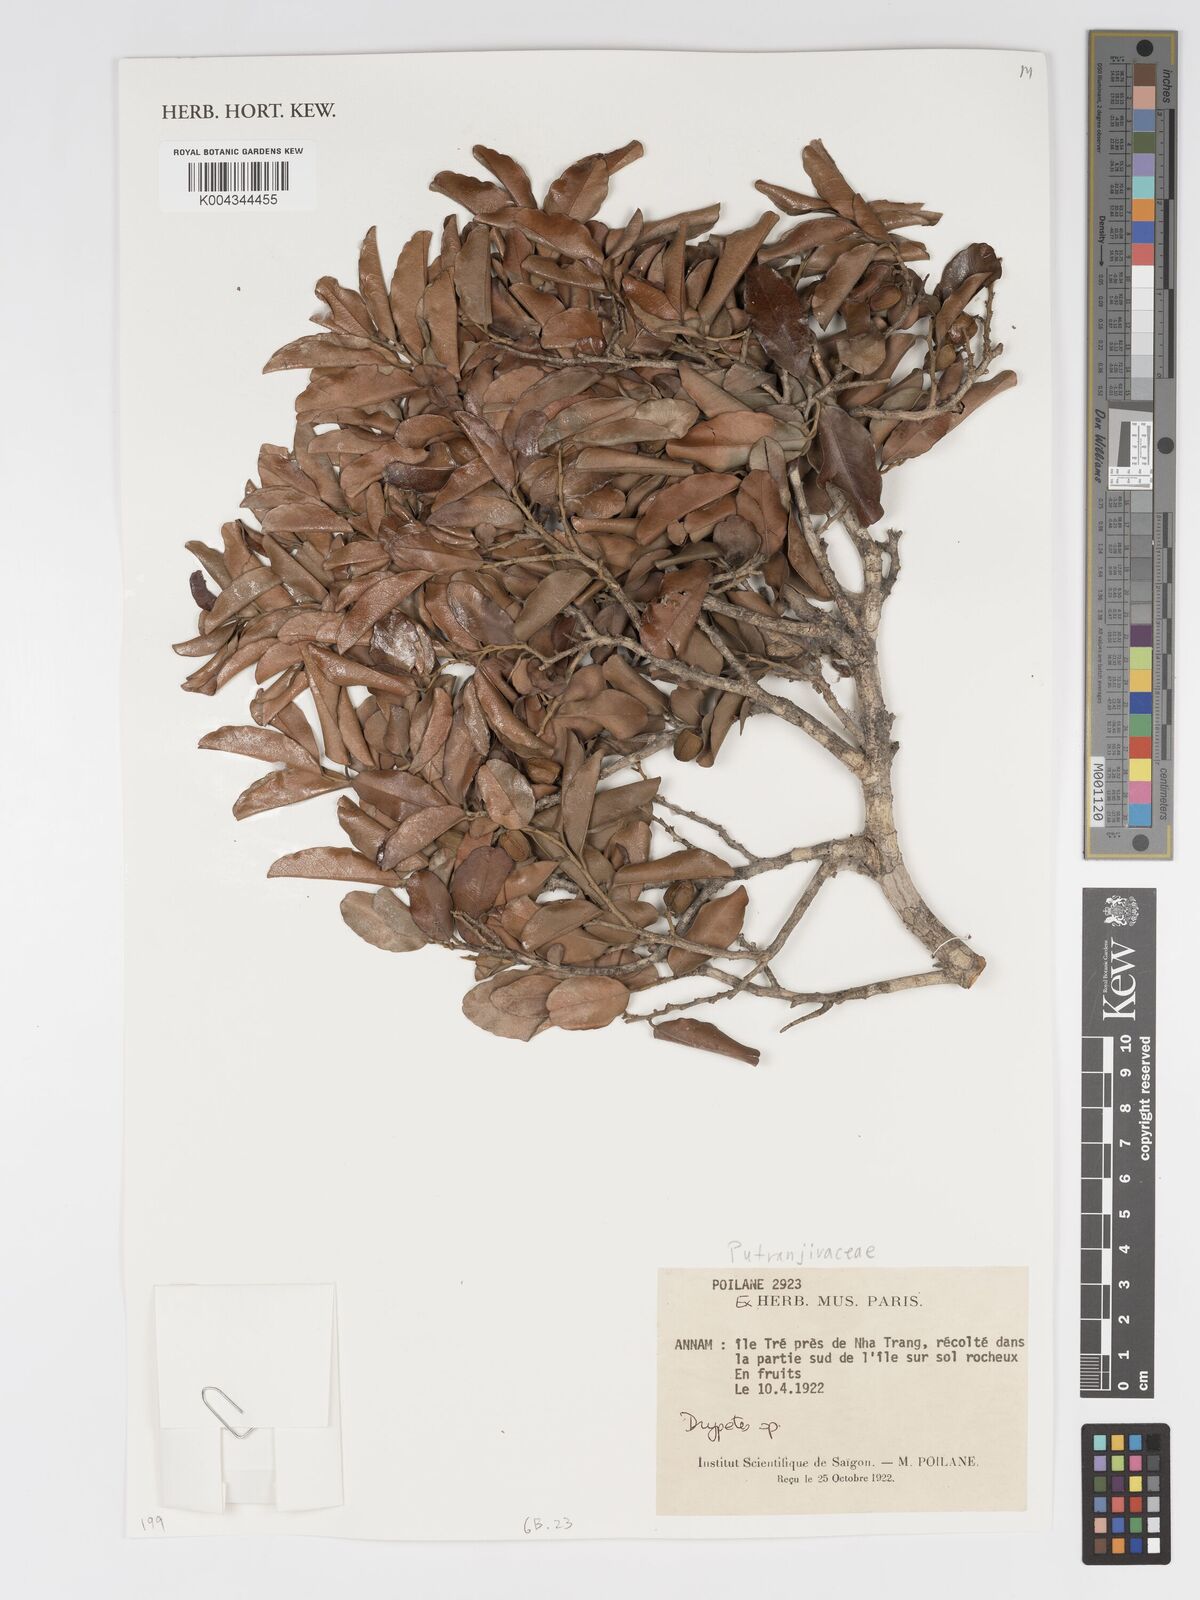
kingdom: Plantae
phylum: Tracheophyta
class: Magnoliopsida
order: Malpighiales
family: Putranjivaceae
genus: Drypetes
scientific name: Drypetes
